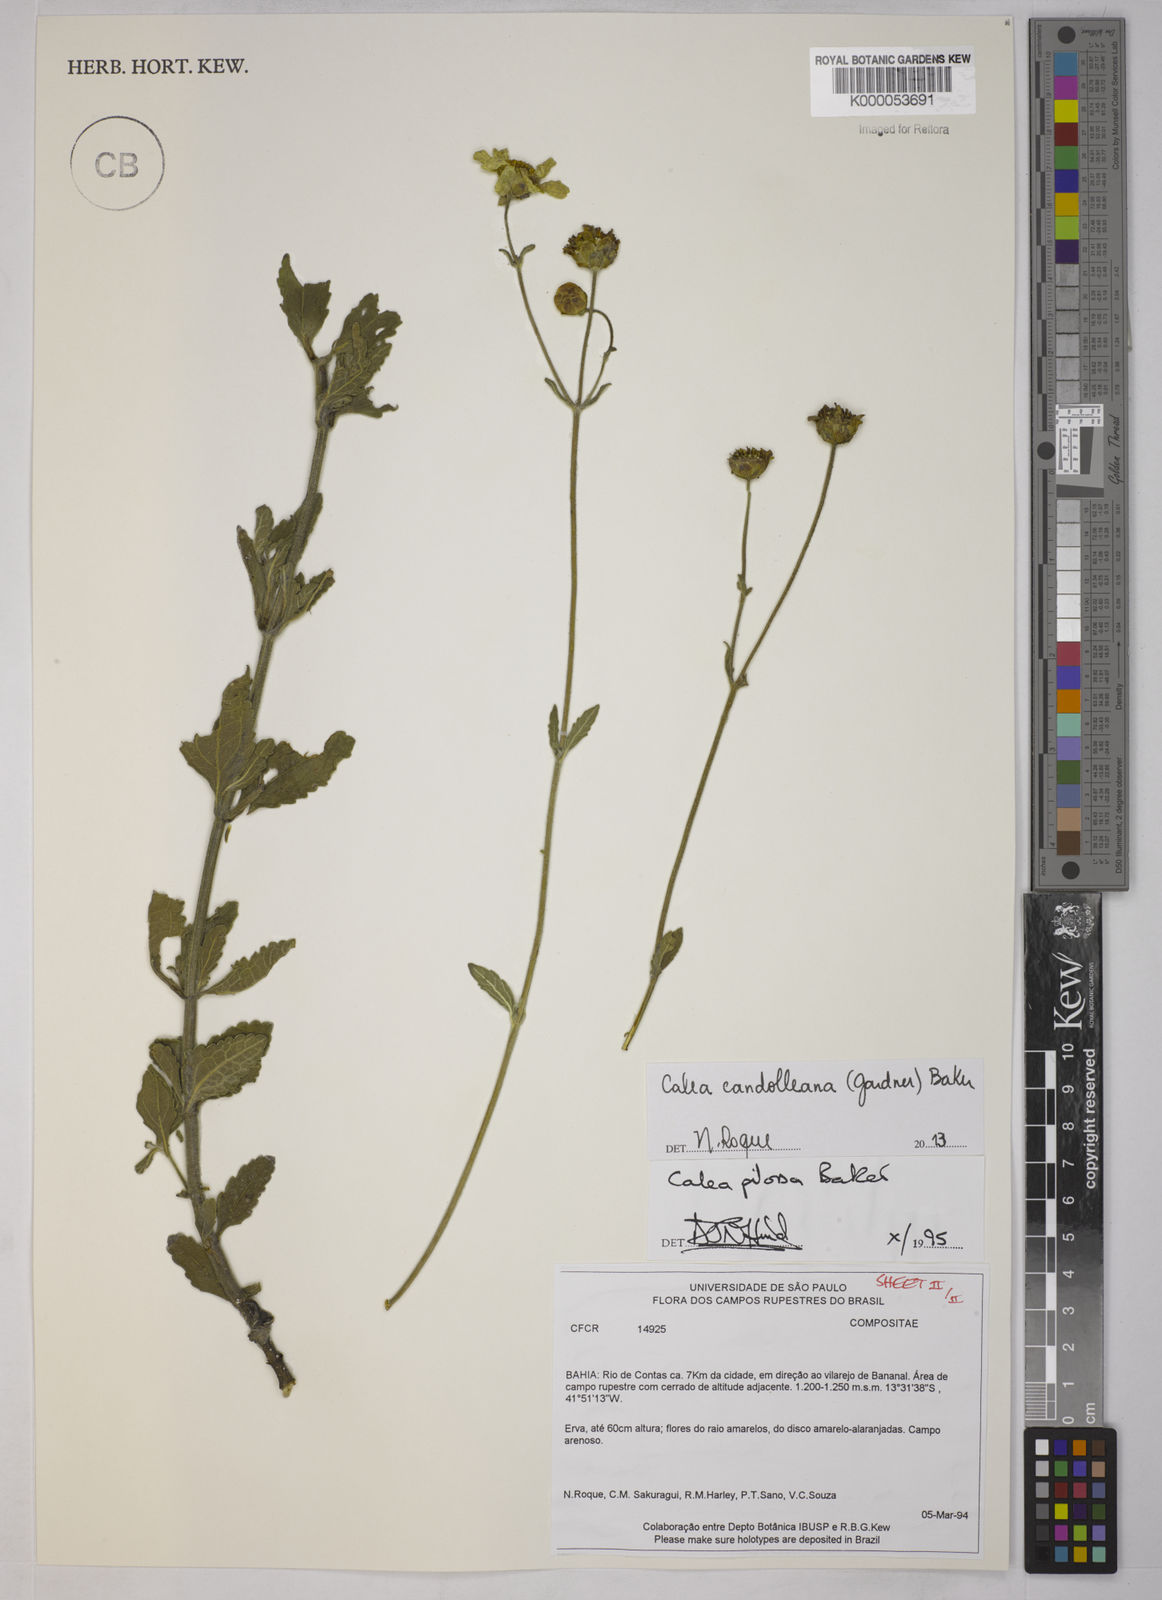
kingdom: Plantae
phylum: Tracheophyta
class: Magnoliopsida
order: Asterales
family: Asteraceae
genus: Calea
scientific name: Calea pilosa
